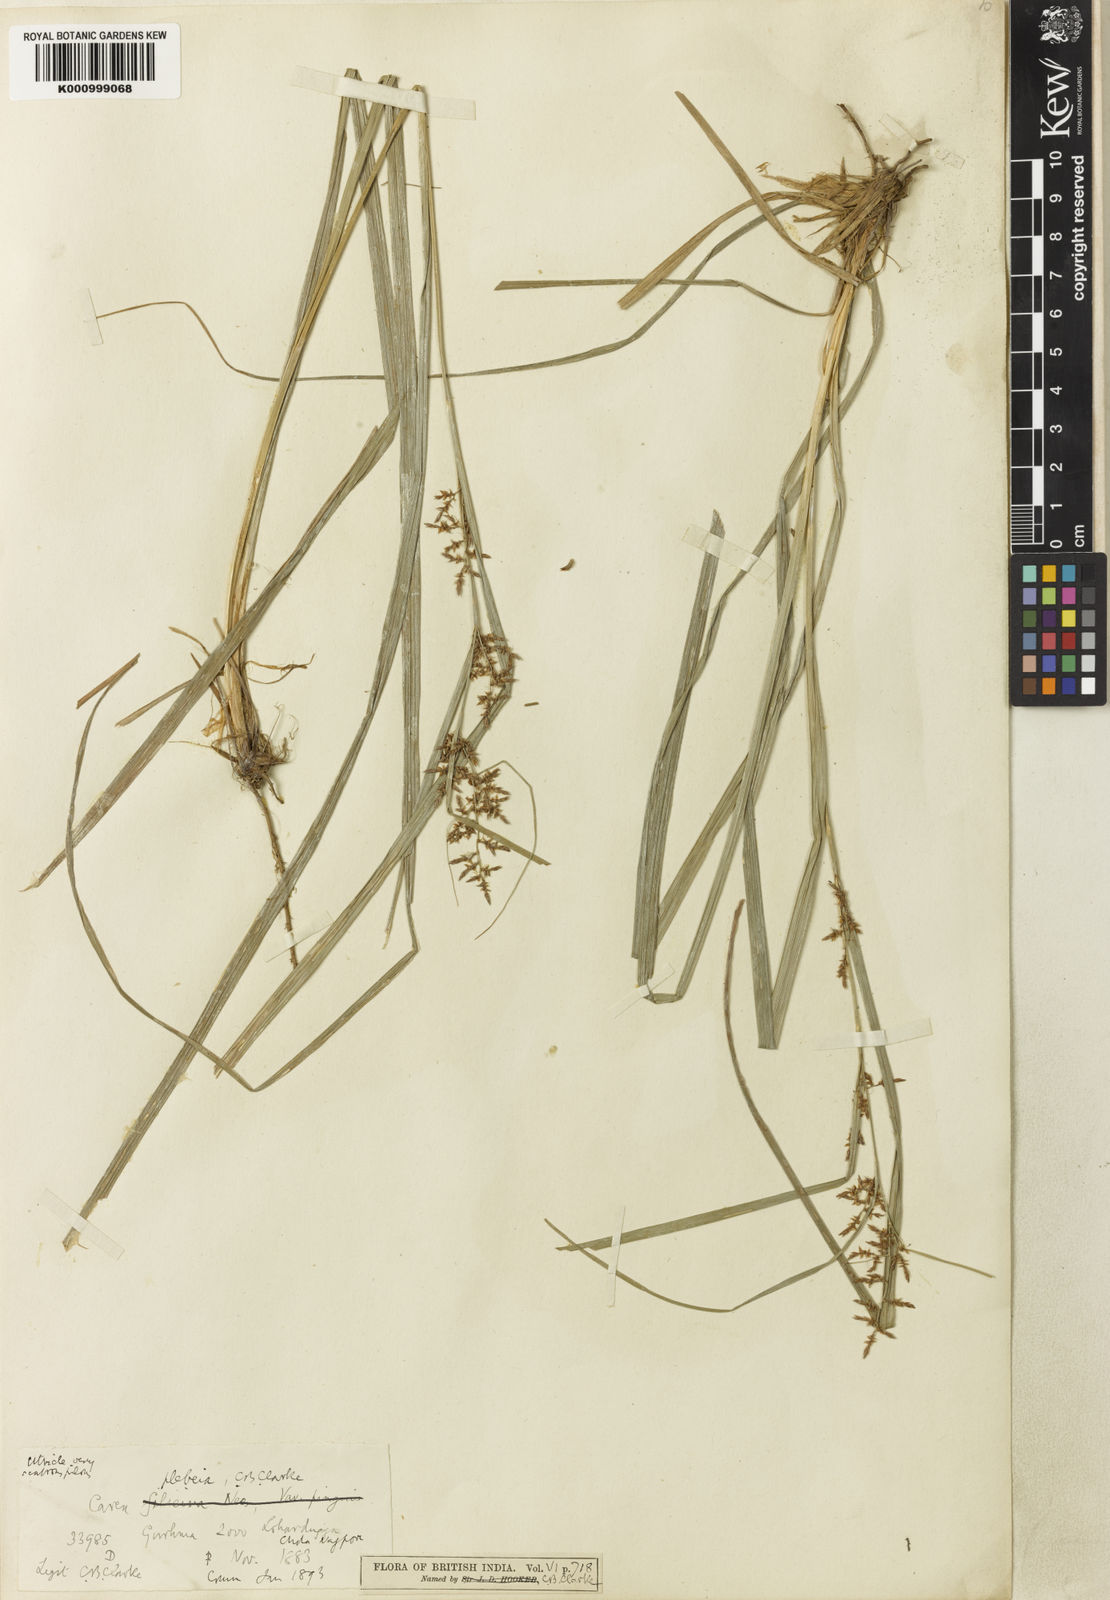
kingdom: Plantae
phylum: Tracheophyta
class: Liliopsida
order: Poales
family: Cyperaceae
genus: Carex
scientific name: Carex continua
